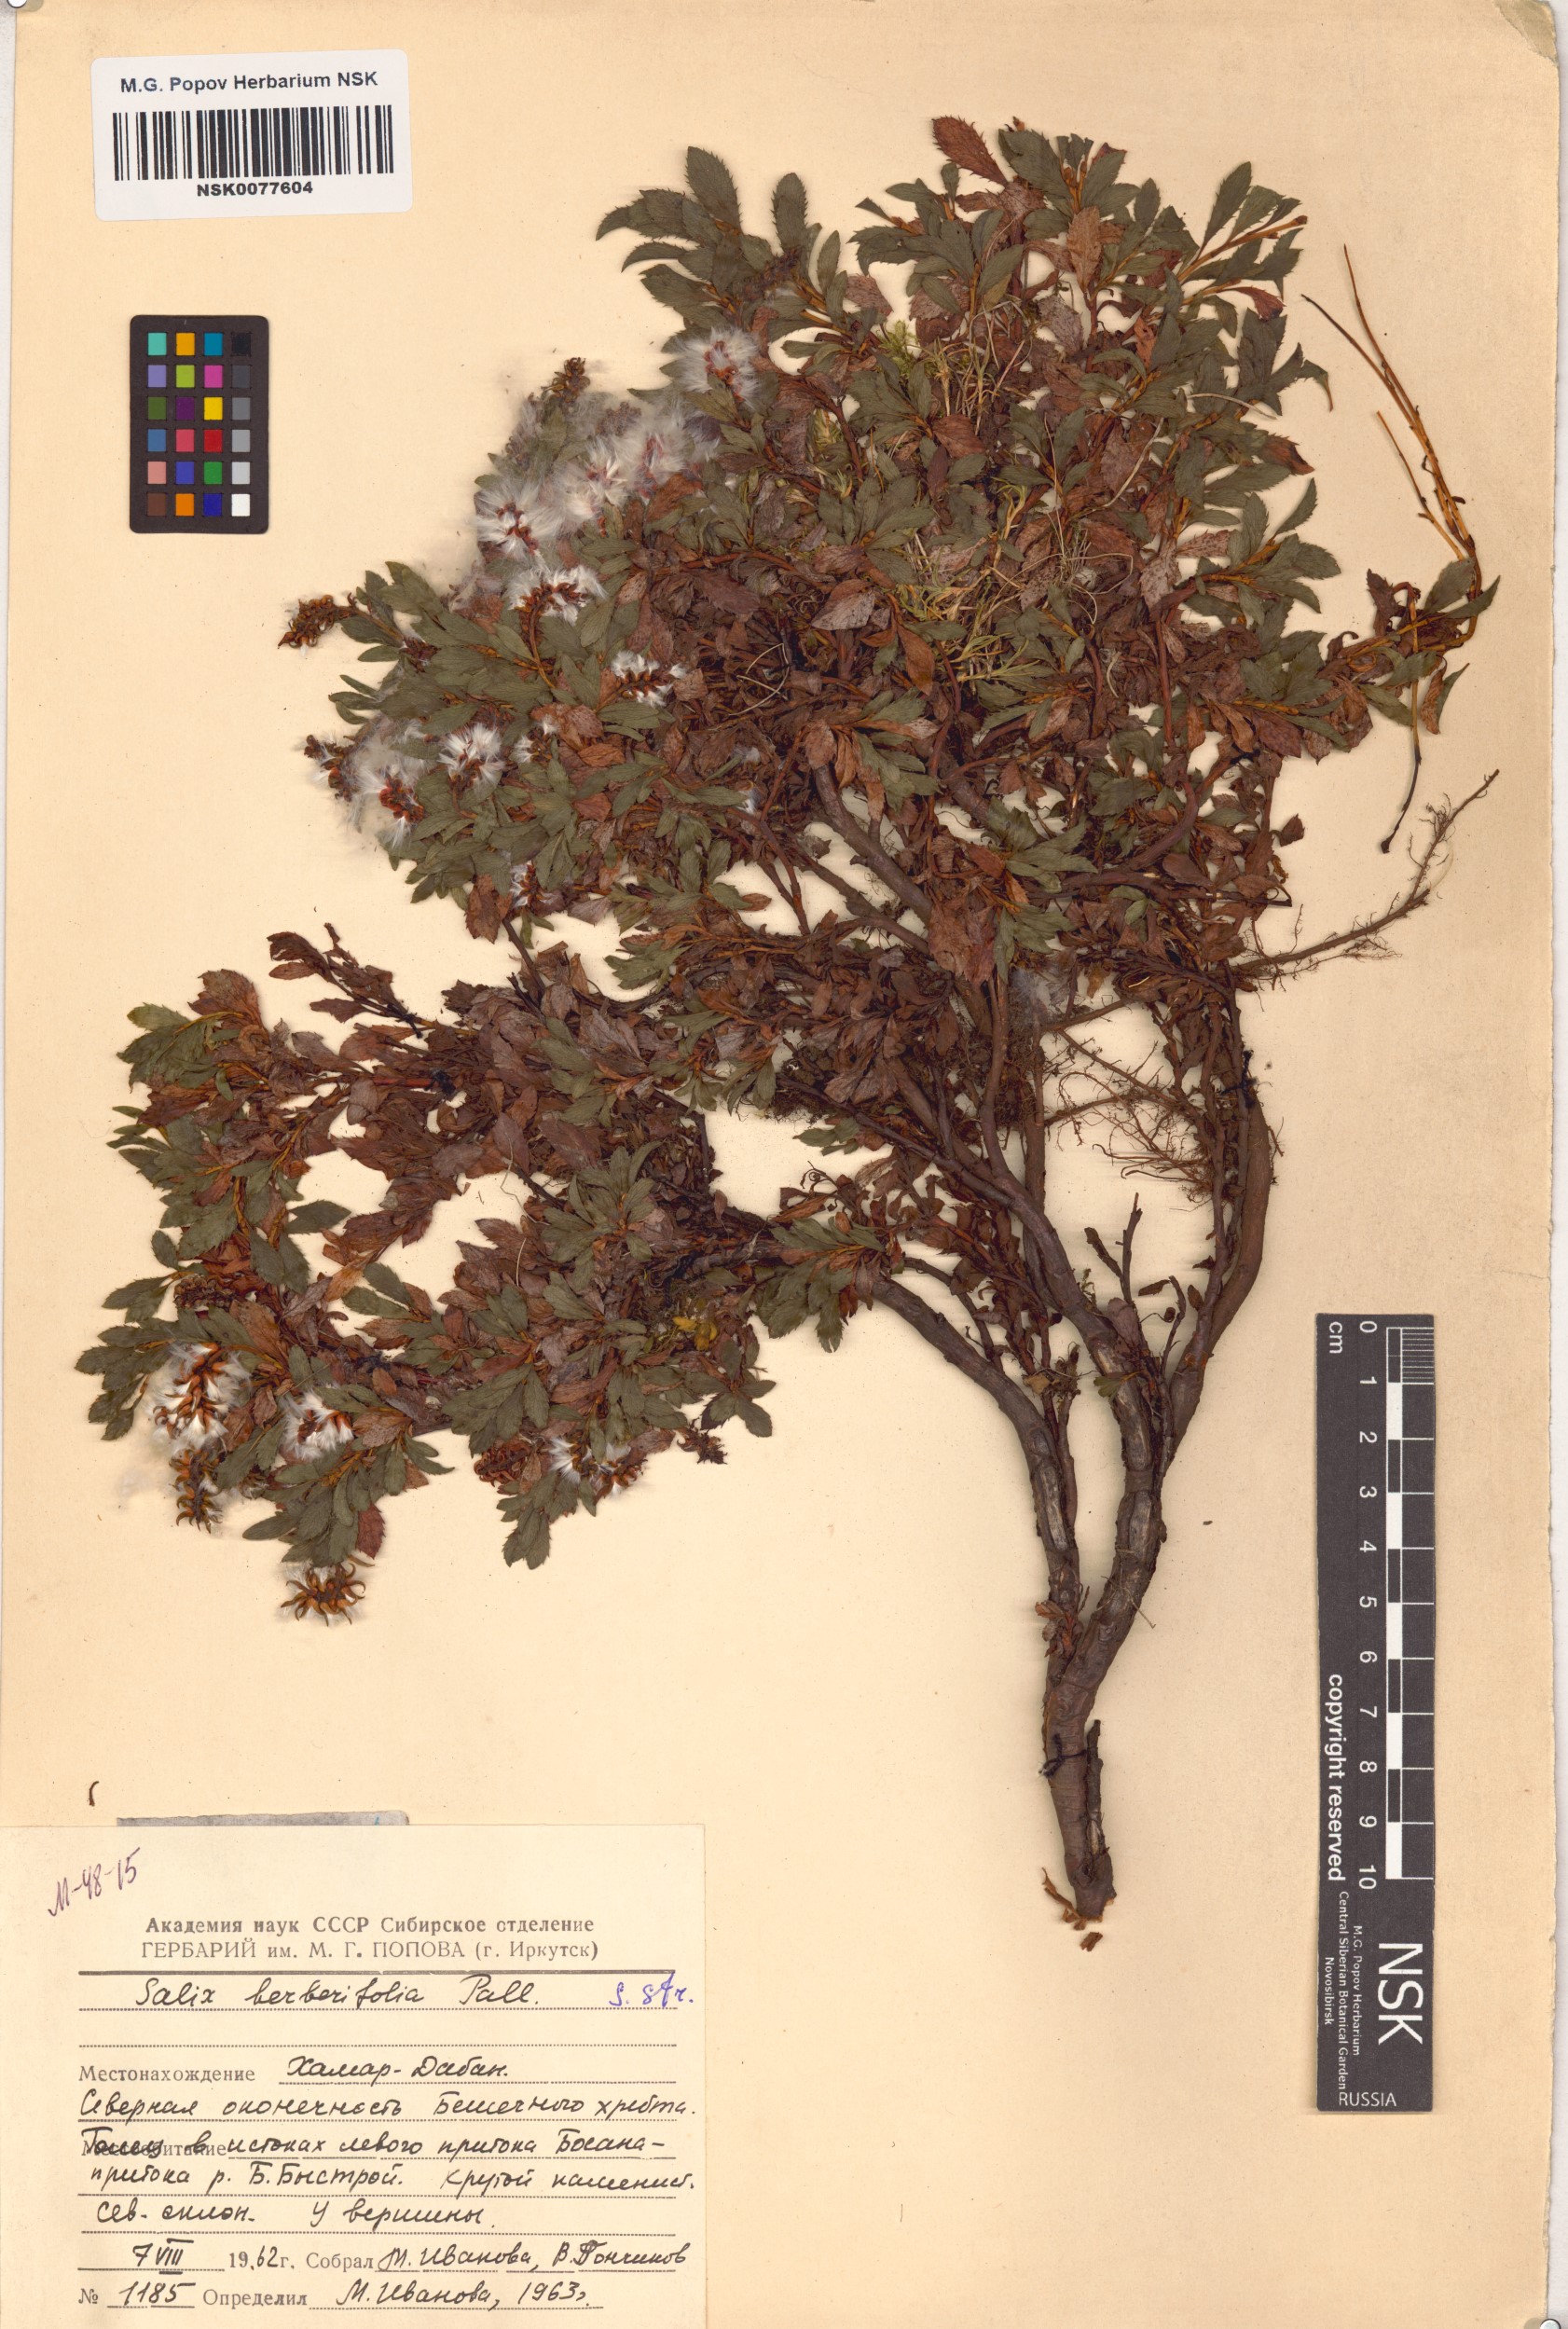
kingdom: Plantae
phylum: Tracheophyta
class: Magnoliopsida
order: Malpighiales
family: Salicaceae
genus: Salix
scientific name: Salix berberifolia
